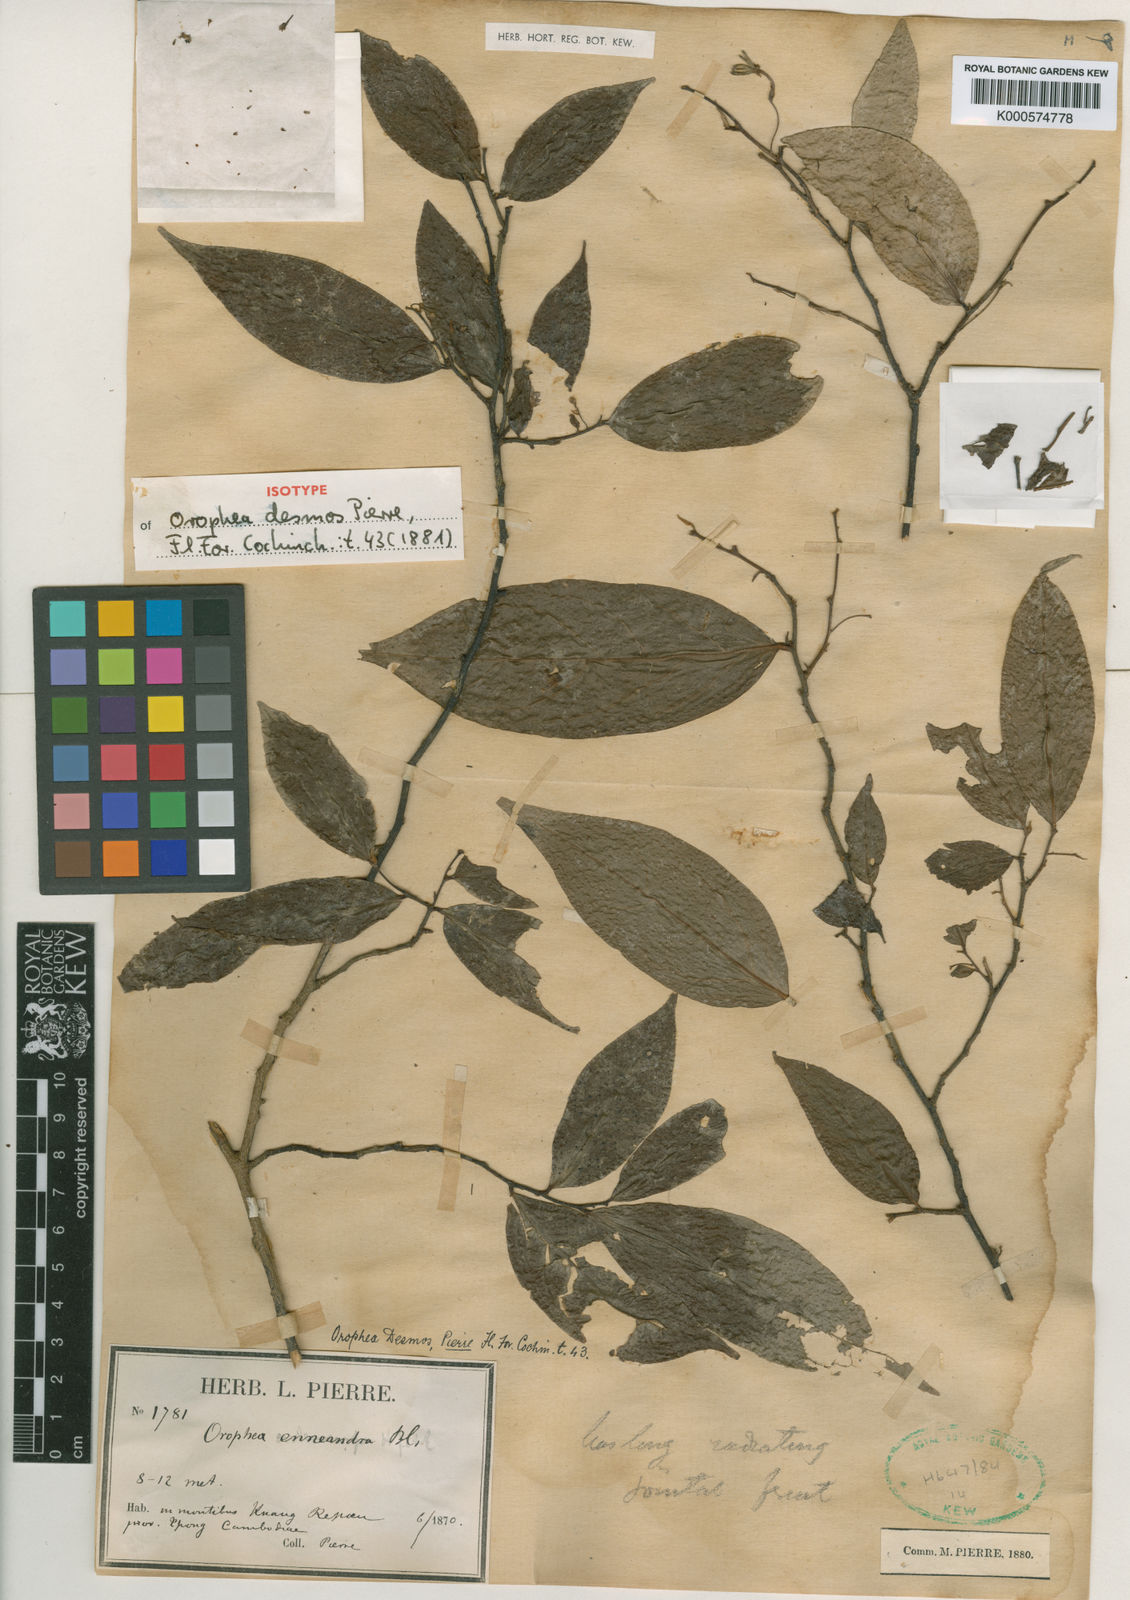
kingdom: Plantae
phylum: Tracheophyta
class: Magnoliopsida
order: Magnoliales
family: Annonaceae
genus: Orophea
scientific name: Orophea desmos
